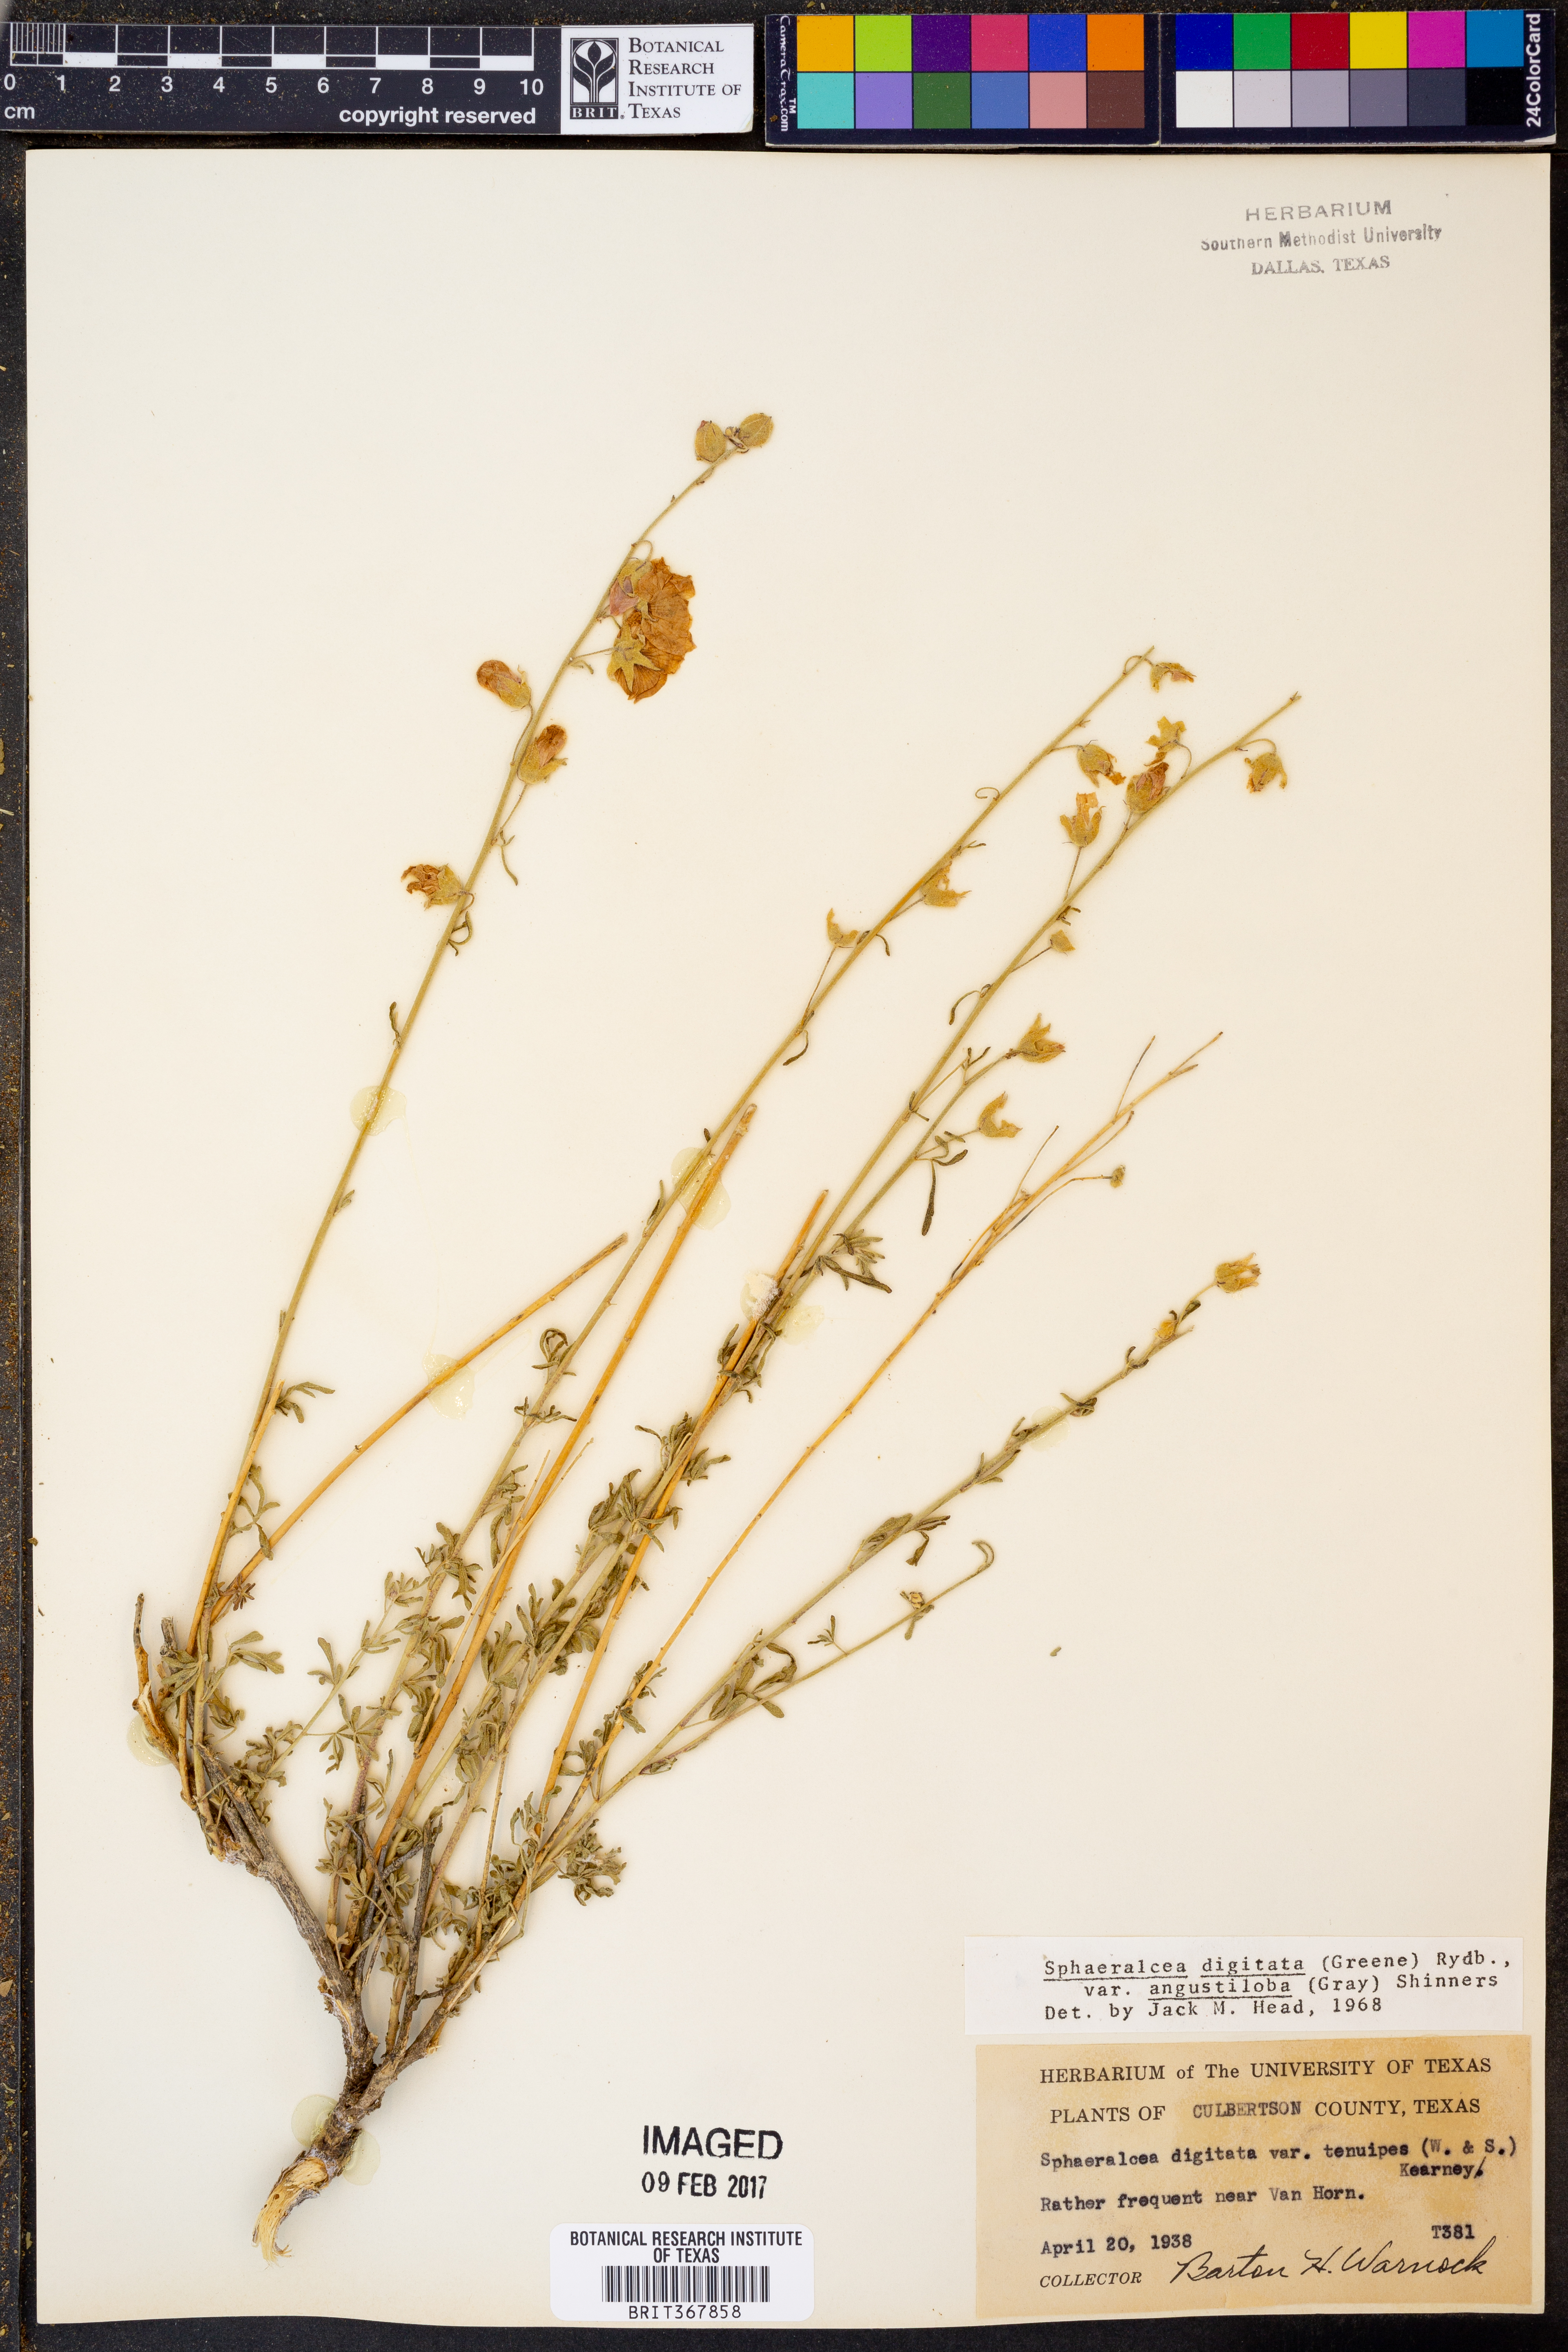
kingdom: Plantae
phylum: Tracheophyta
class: Magnoliopsida
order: Malvales
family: Malvaceae
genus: Sphaeralcea
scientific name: Sphaeralcea digitata
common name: Juniper-gobe-mallow
